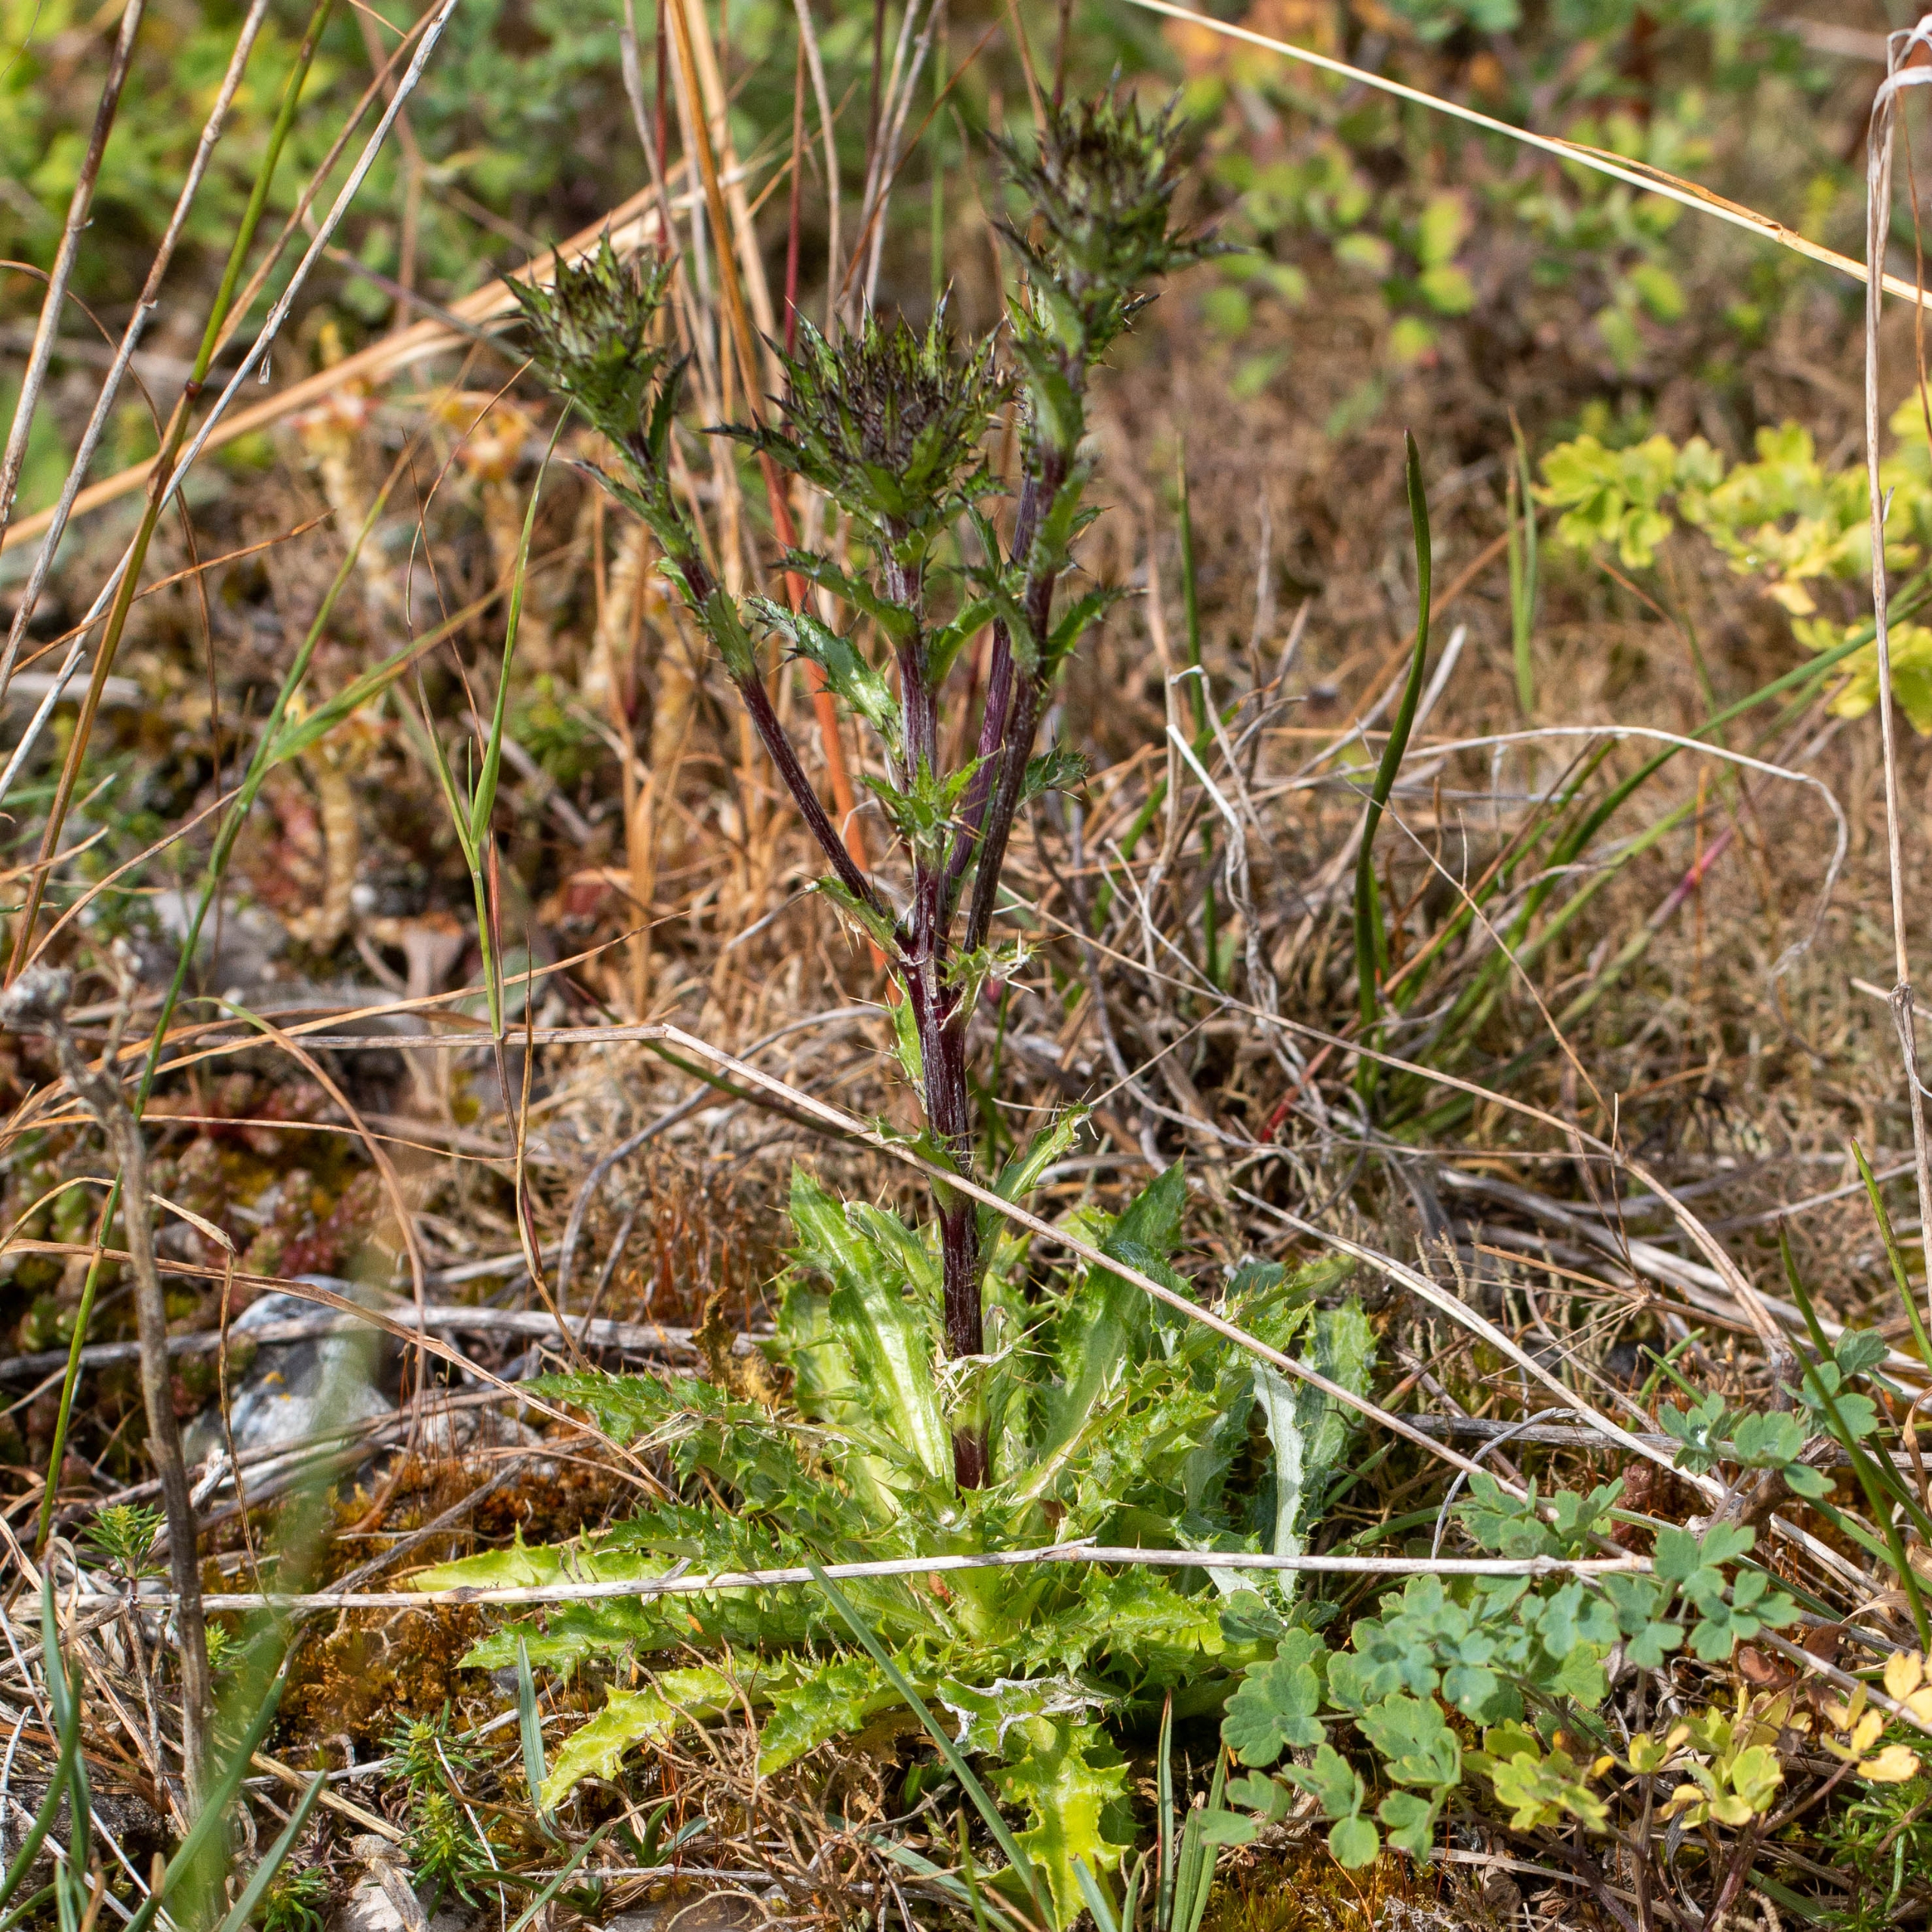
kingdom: Plantae
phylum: Tracheophyta
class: Magnoliopsida
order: Asterales
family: Asteraceae
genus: Carlina
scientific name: Carlina vulgaris
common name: Bakketidsel
